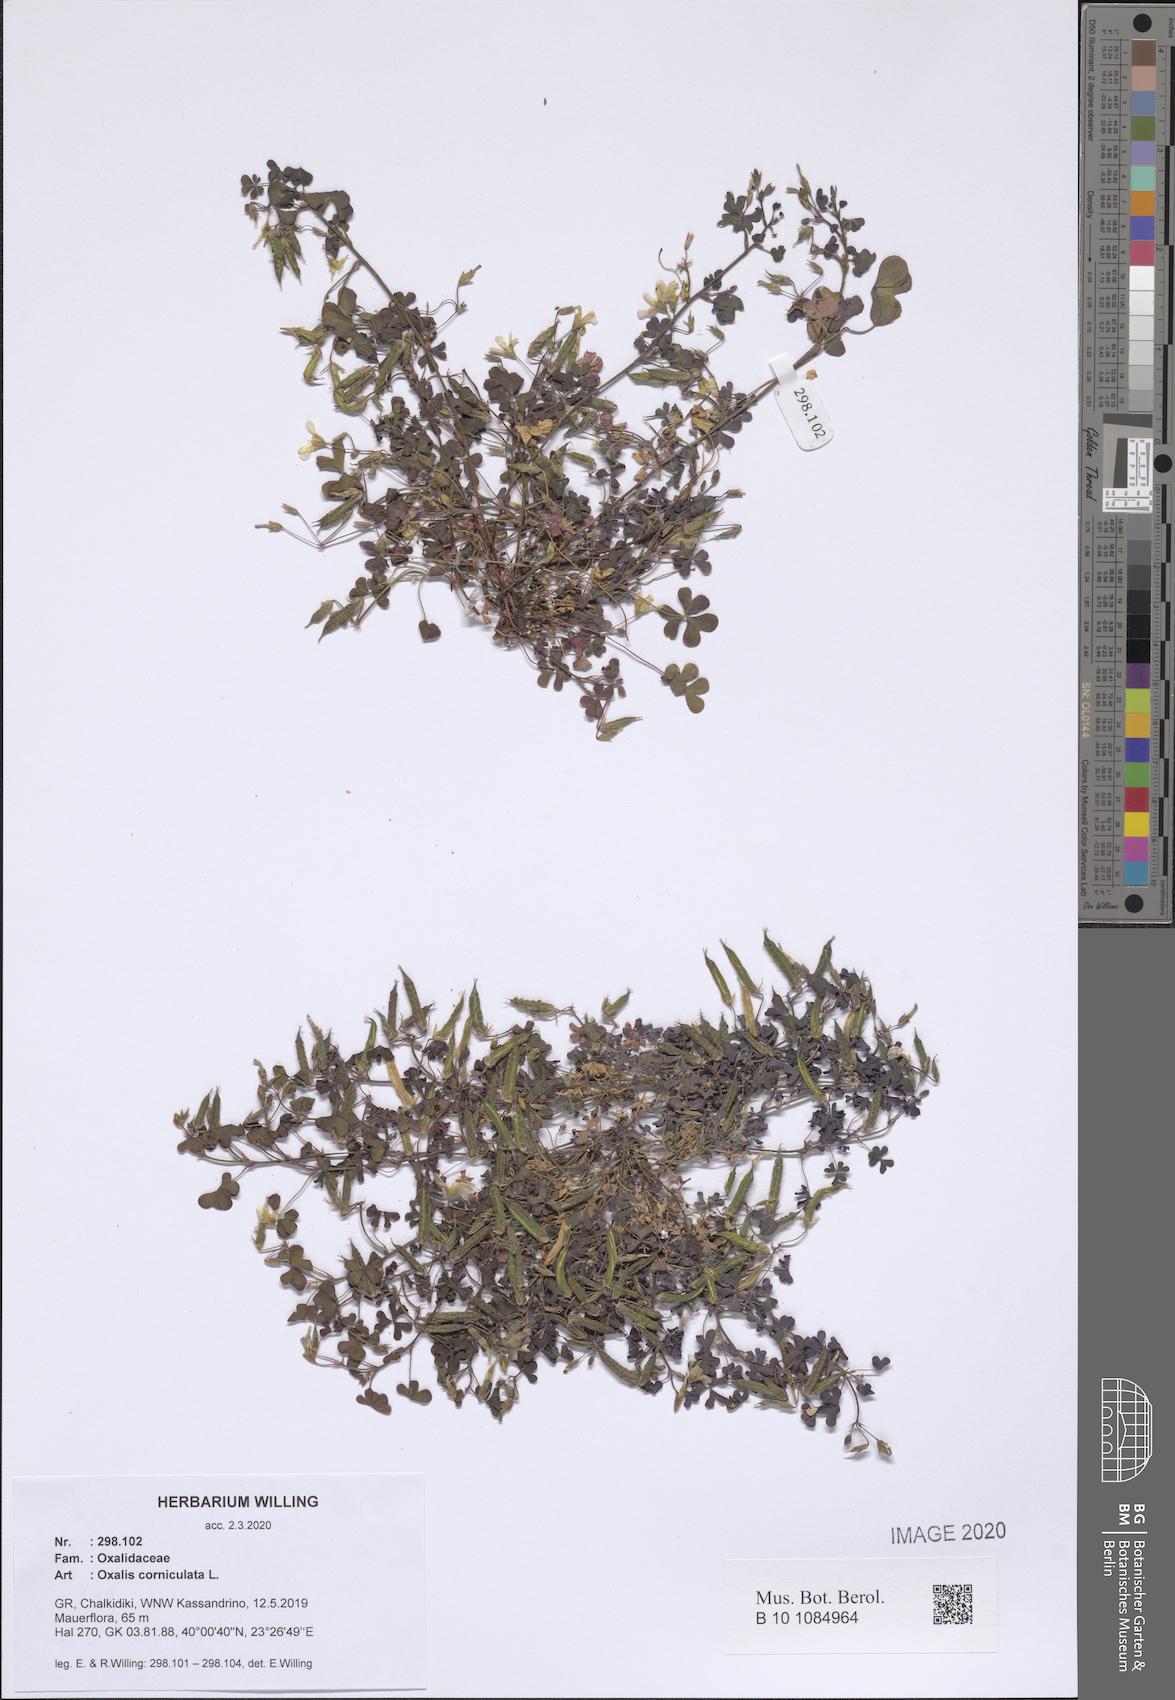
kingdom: Plantae
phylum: Tracheophyta
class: Magnoliopsida
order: Oxalidales
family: Oxalidaceae
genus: Oxalis
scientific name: Oxalis corniculata
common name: Procumbent yellow-sorrel
